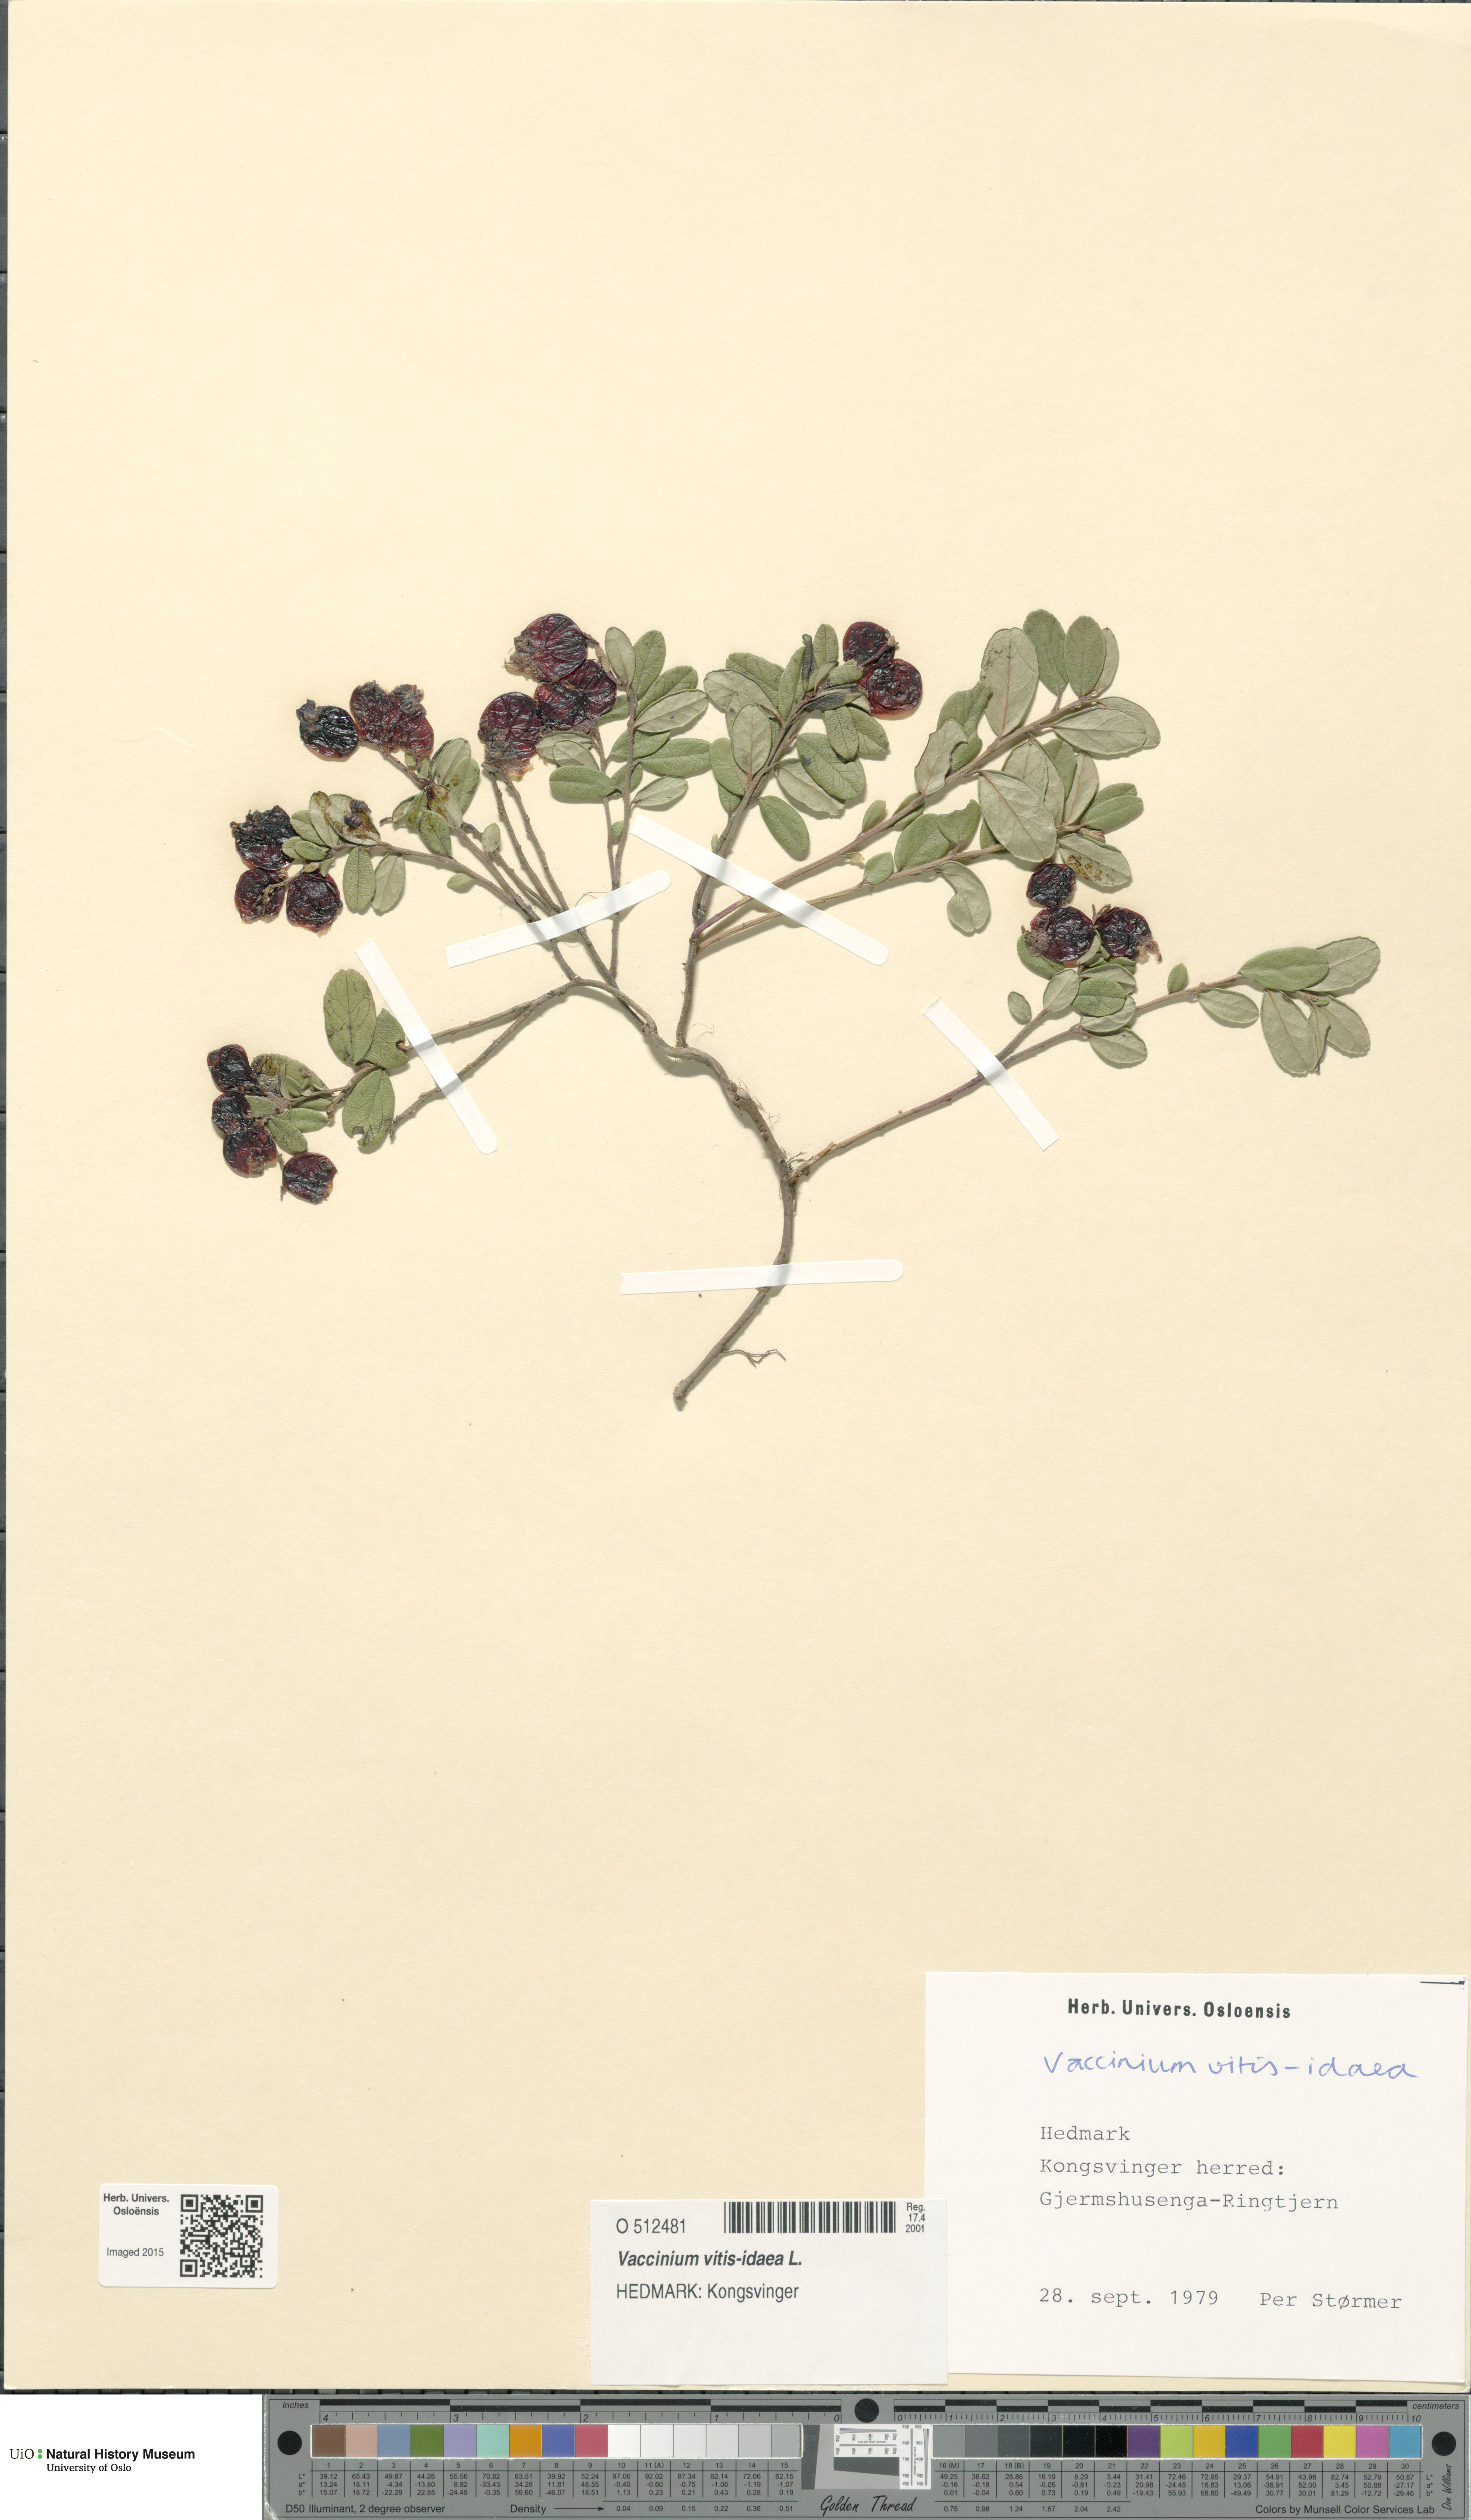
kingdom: Plantae
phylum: Tracheophyta
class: Magnoliopsida
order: Ericales
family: Ericaceae
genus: Vaccinium
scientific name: Vaccinium vitis-idaea
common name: Cowberry
